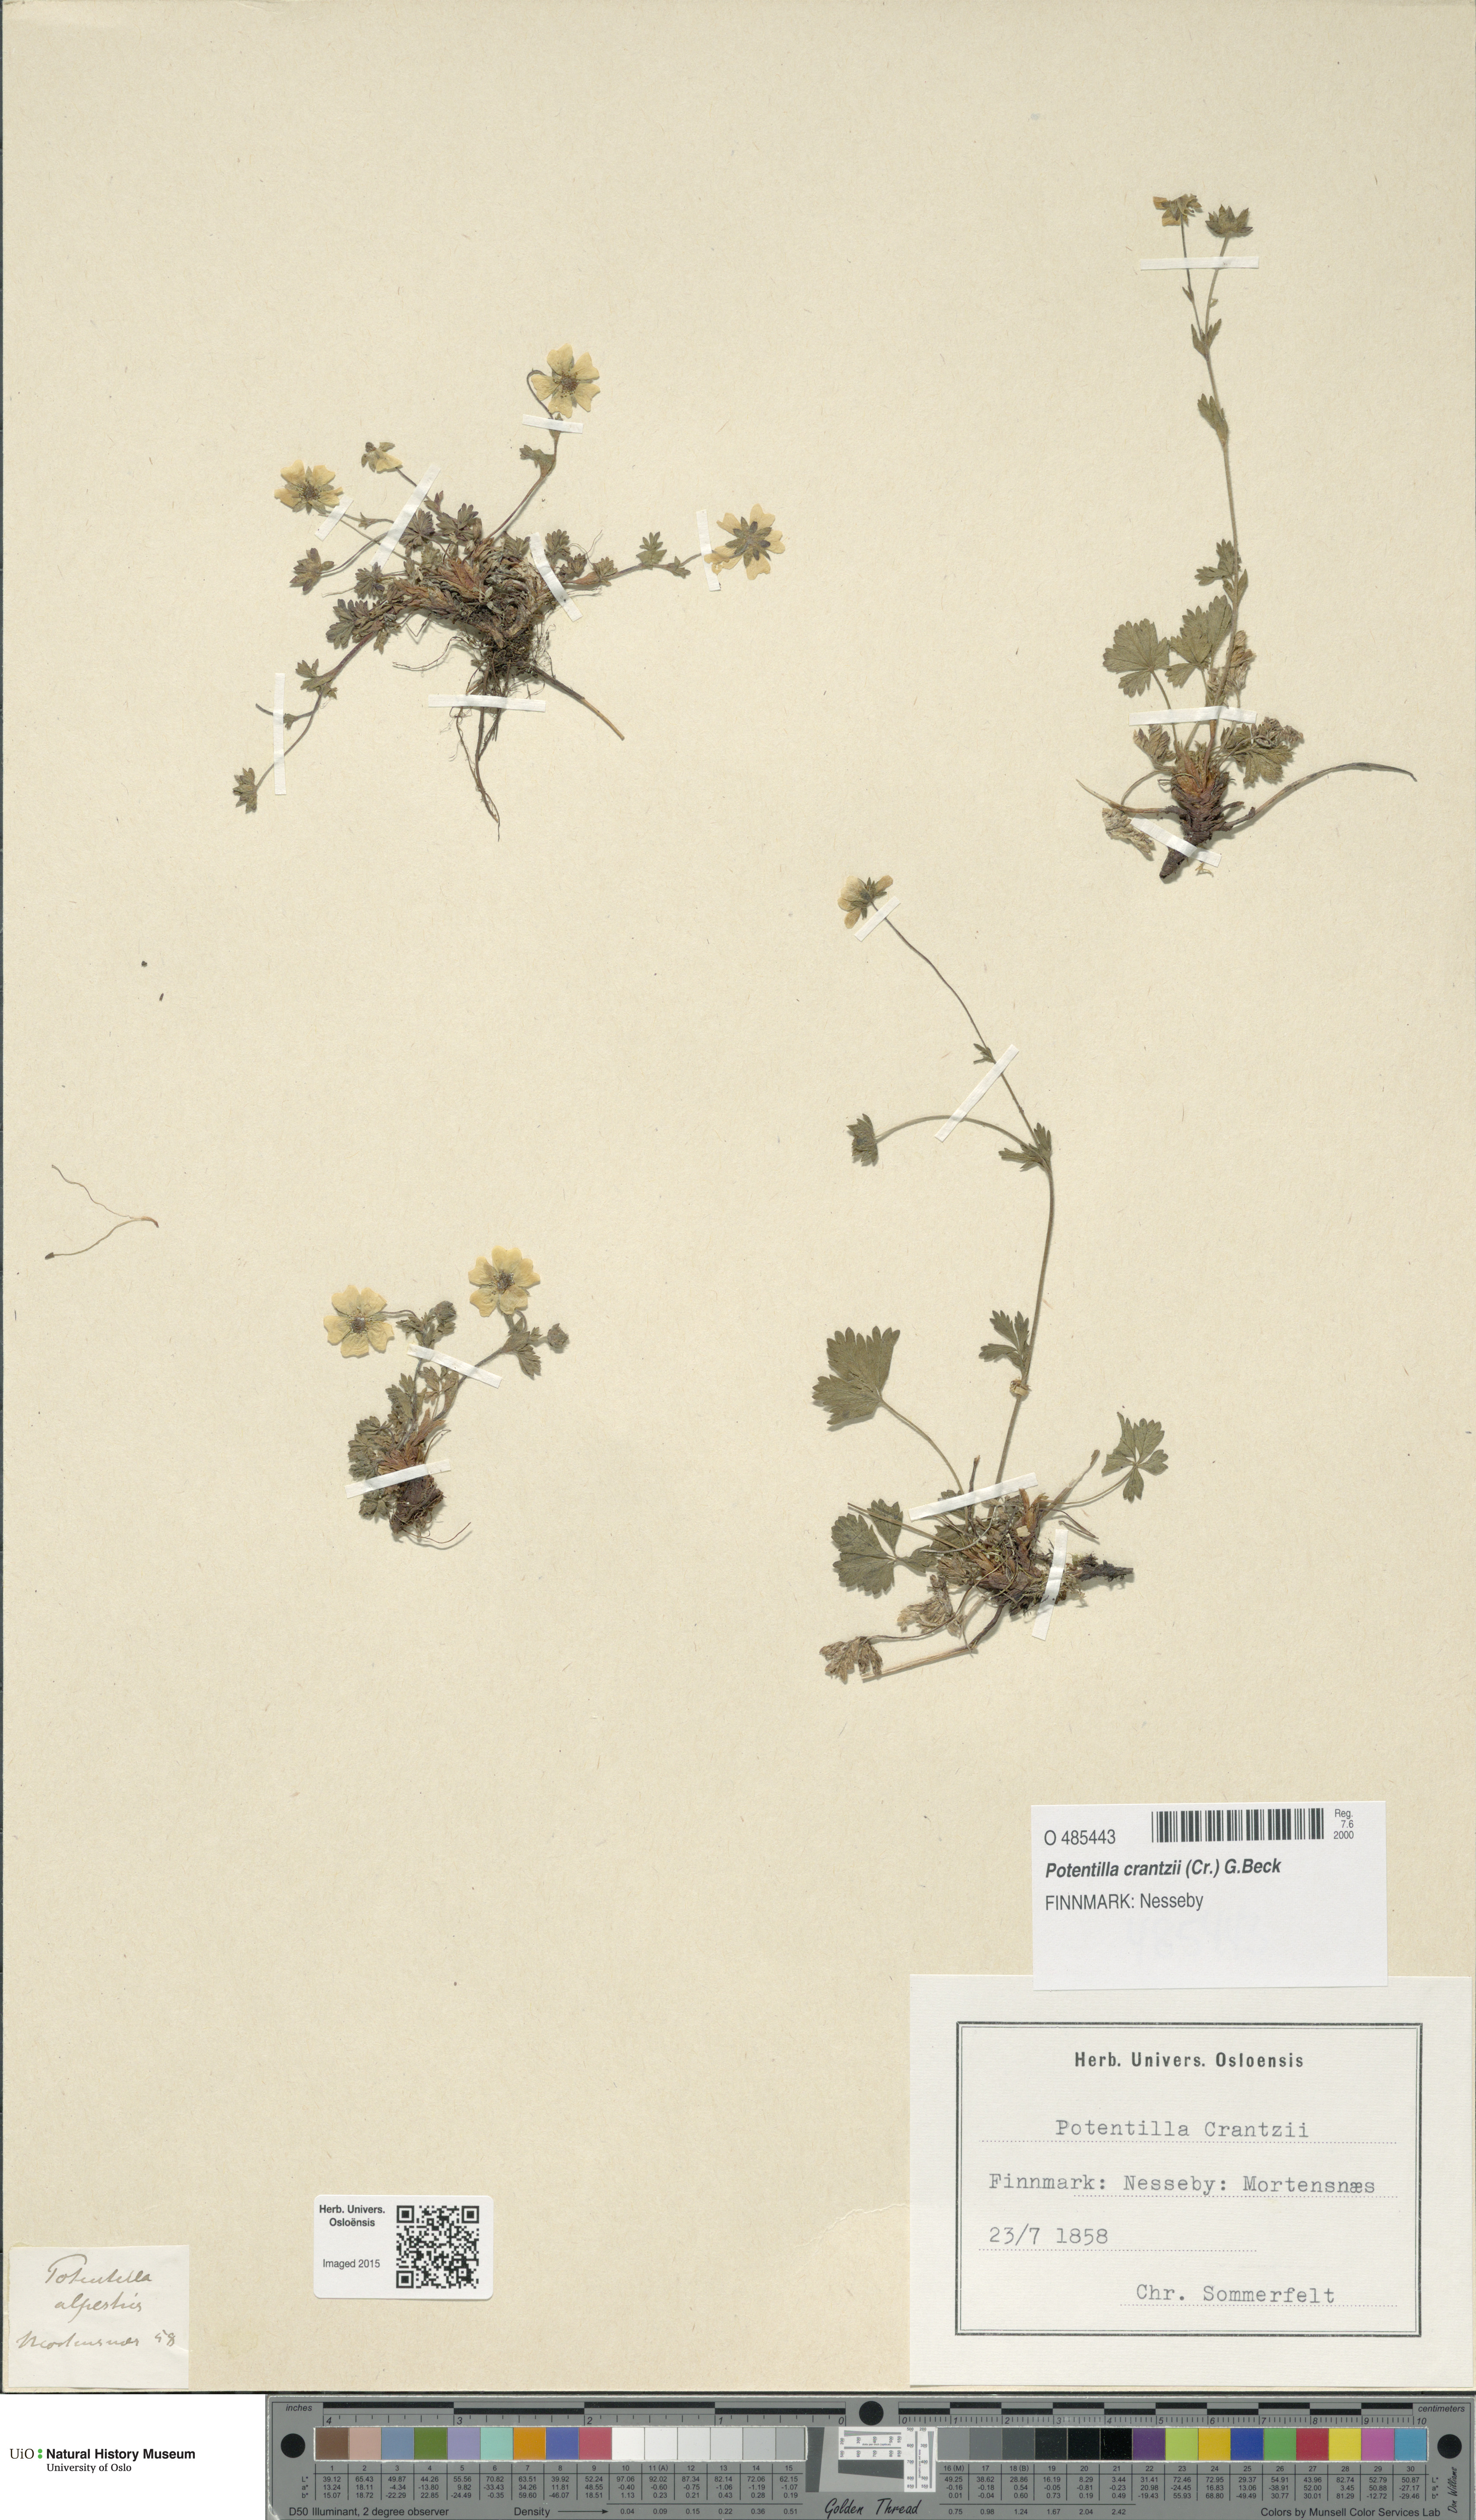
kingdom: Plantae
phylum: Tracheophyta
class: Magnoliopsida
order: Rosales
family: Rosaceae
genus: Potentilla
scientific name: Potentilla crantzii
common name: Alpine cinquefoil
